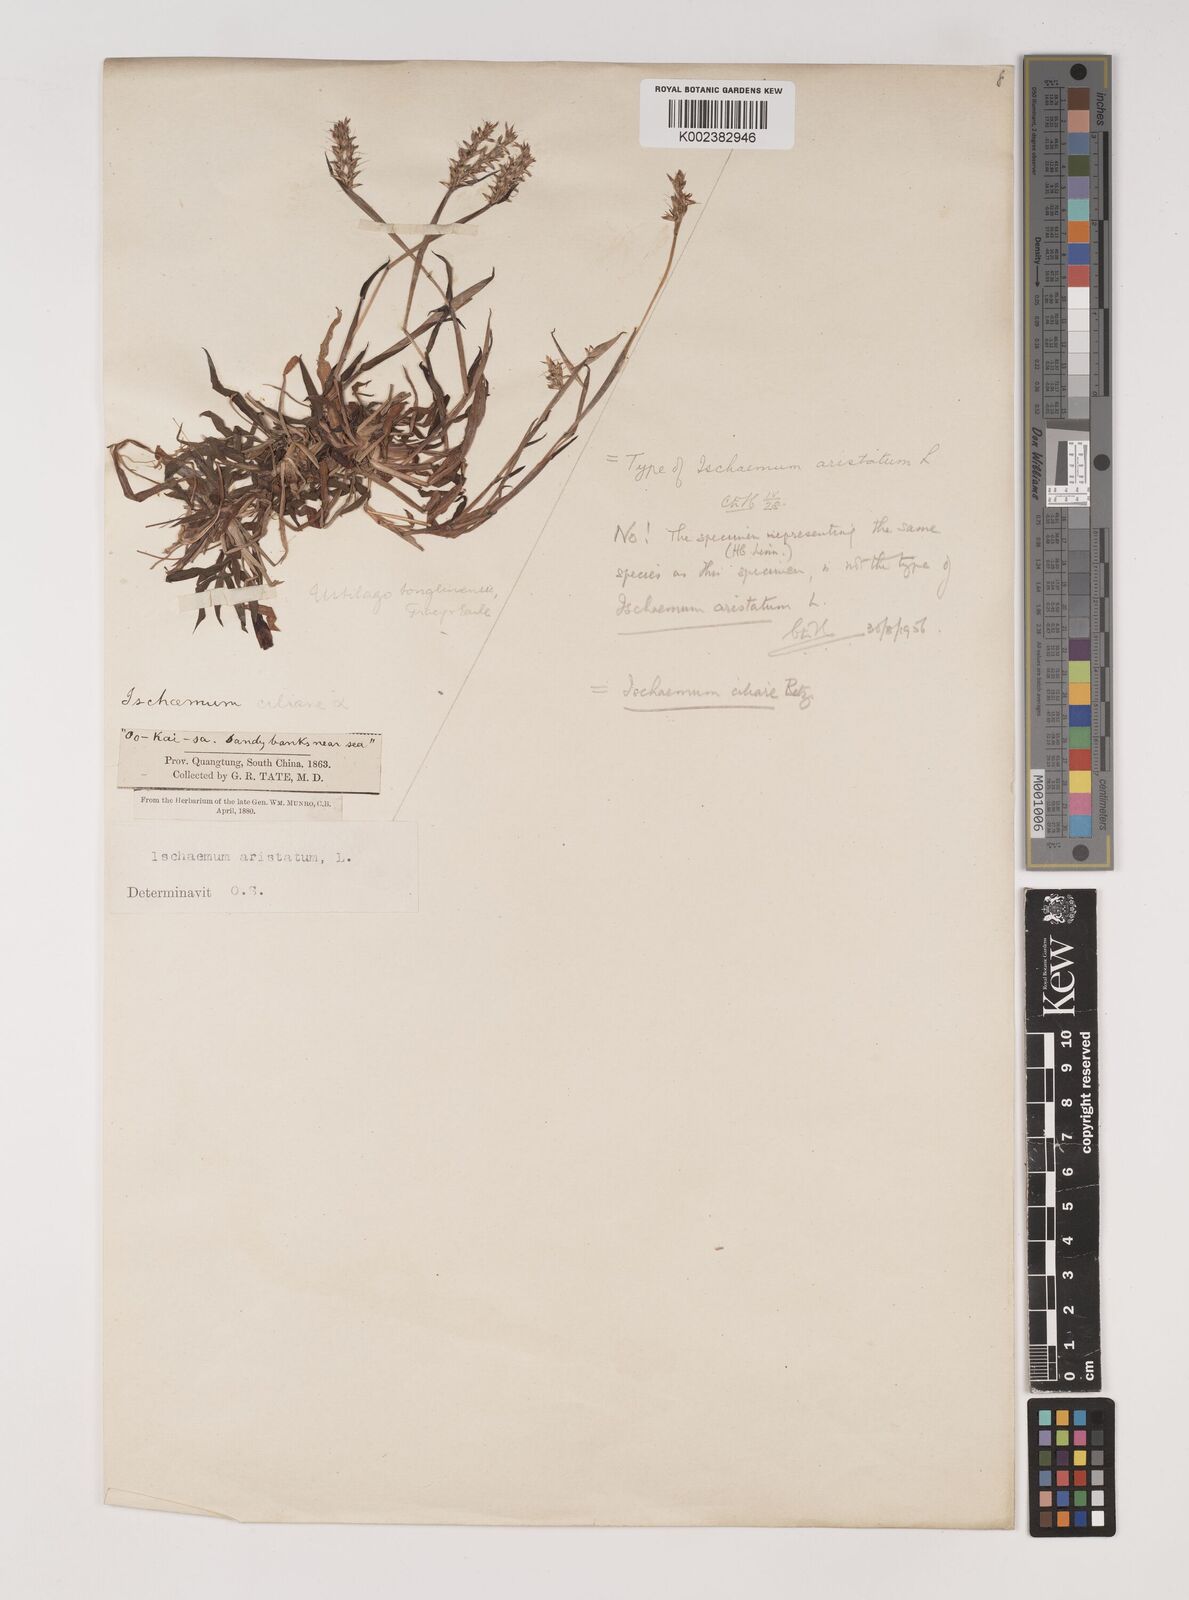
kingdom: Plantae
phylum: Tracheophyta
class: Liliopsida
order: Poales
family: Poaceae
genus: Polytrias
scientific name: Polytrias indica
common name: Indian murainagrass
